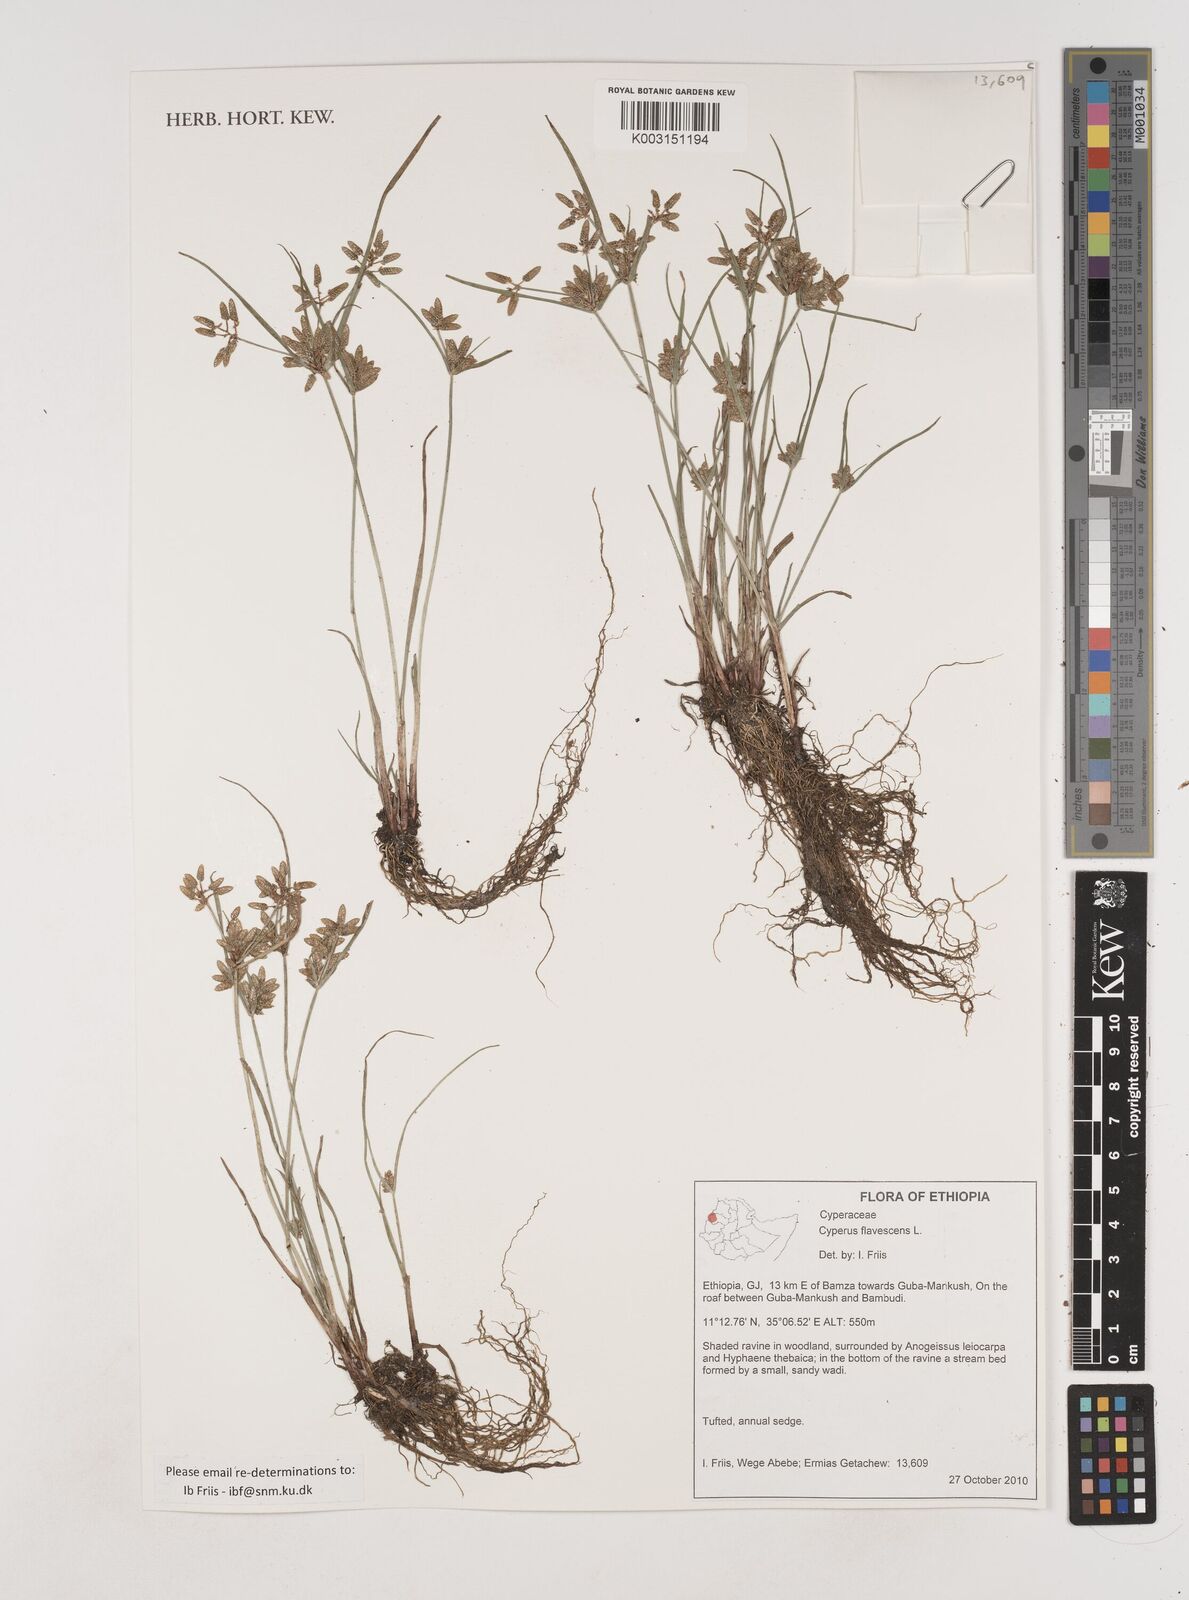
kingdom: Plantae
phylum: Tracheophyta
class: Liliopsida
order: Poales
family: Cyperaceae
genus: Cyperus
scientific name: Cyperus flavescens
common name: Yellow galingale
